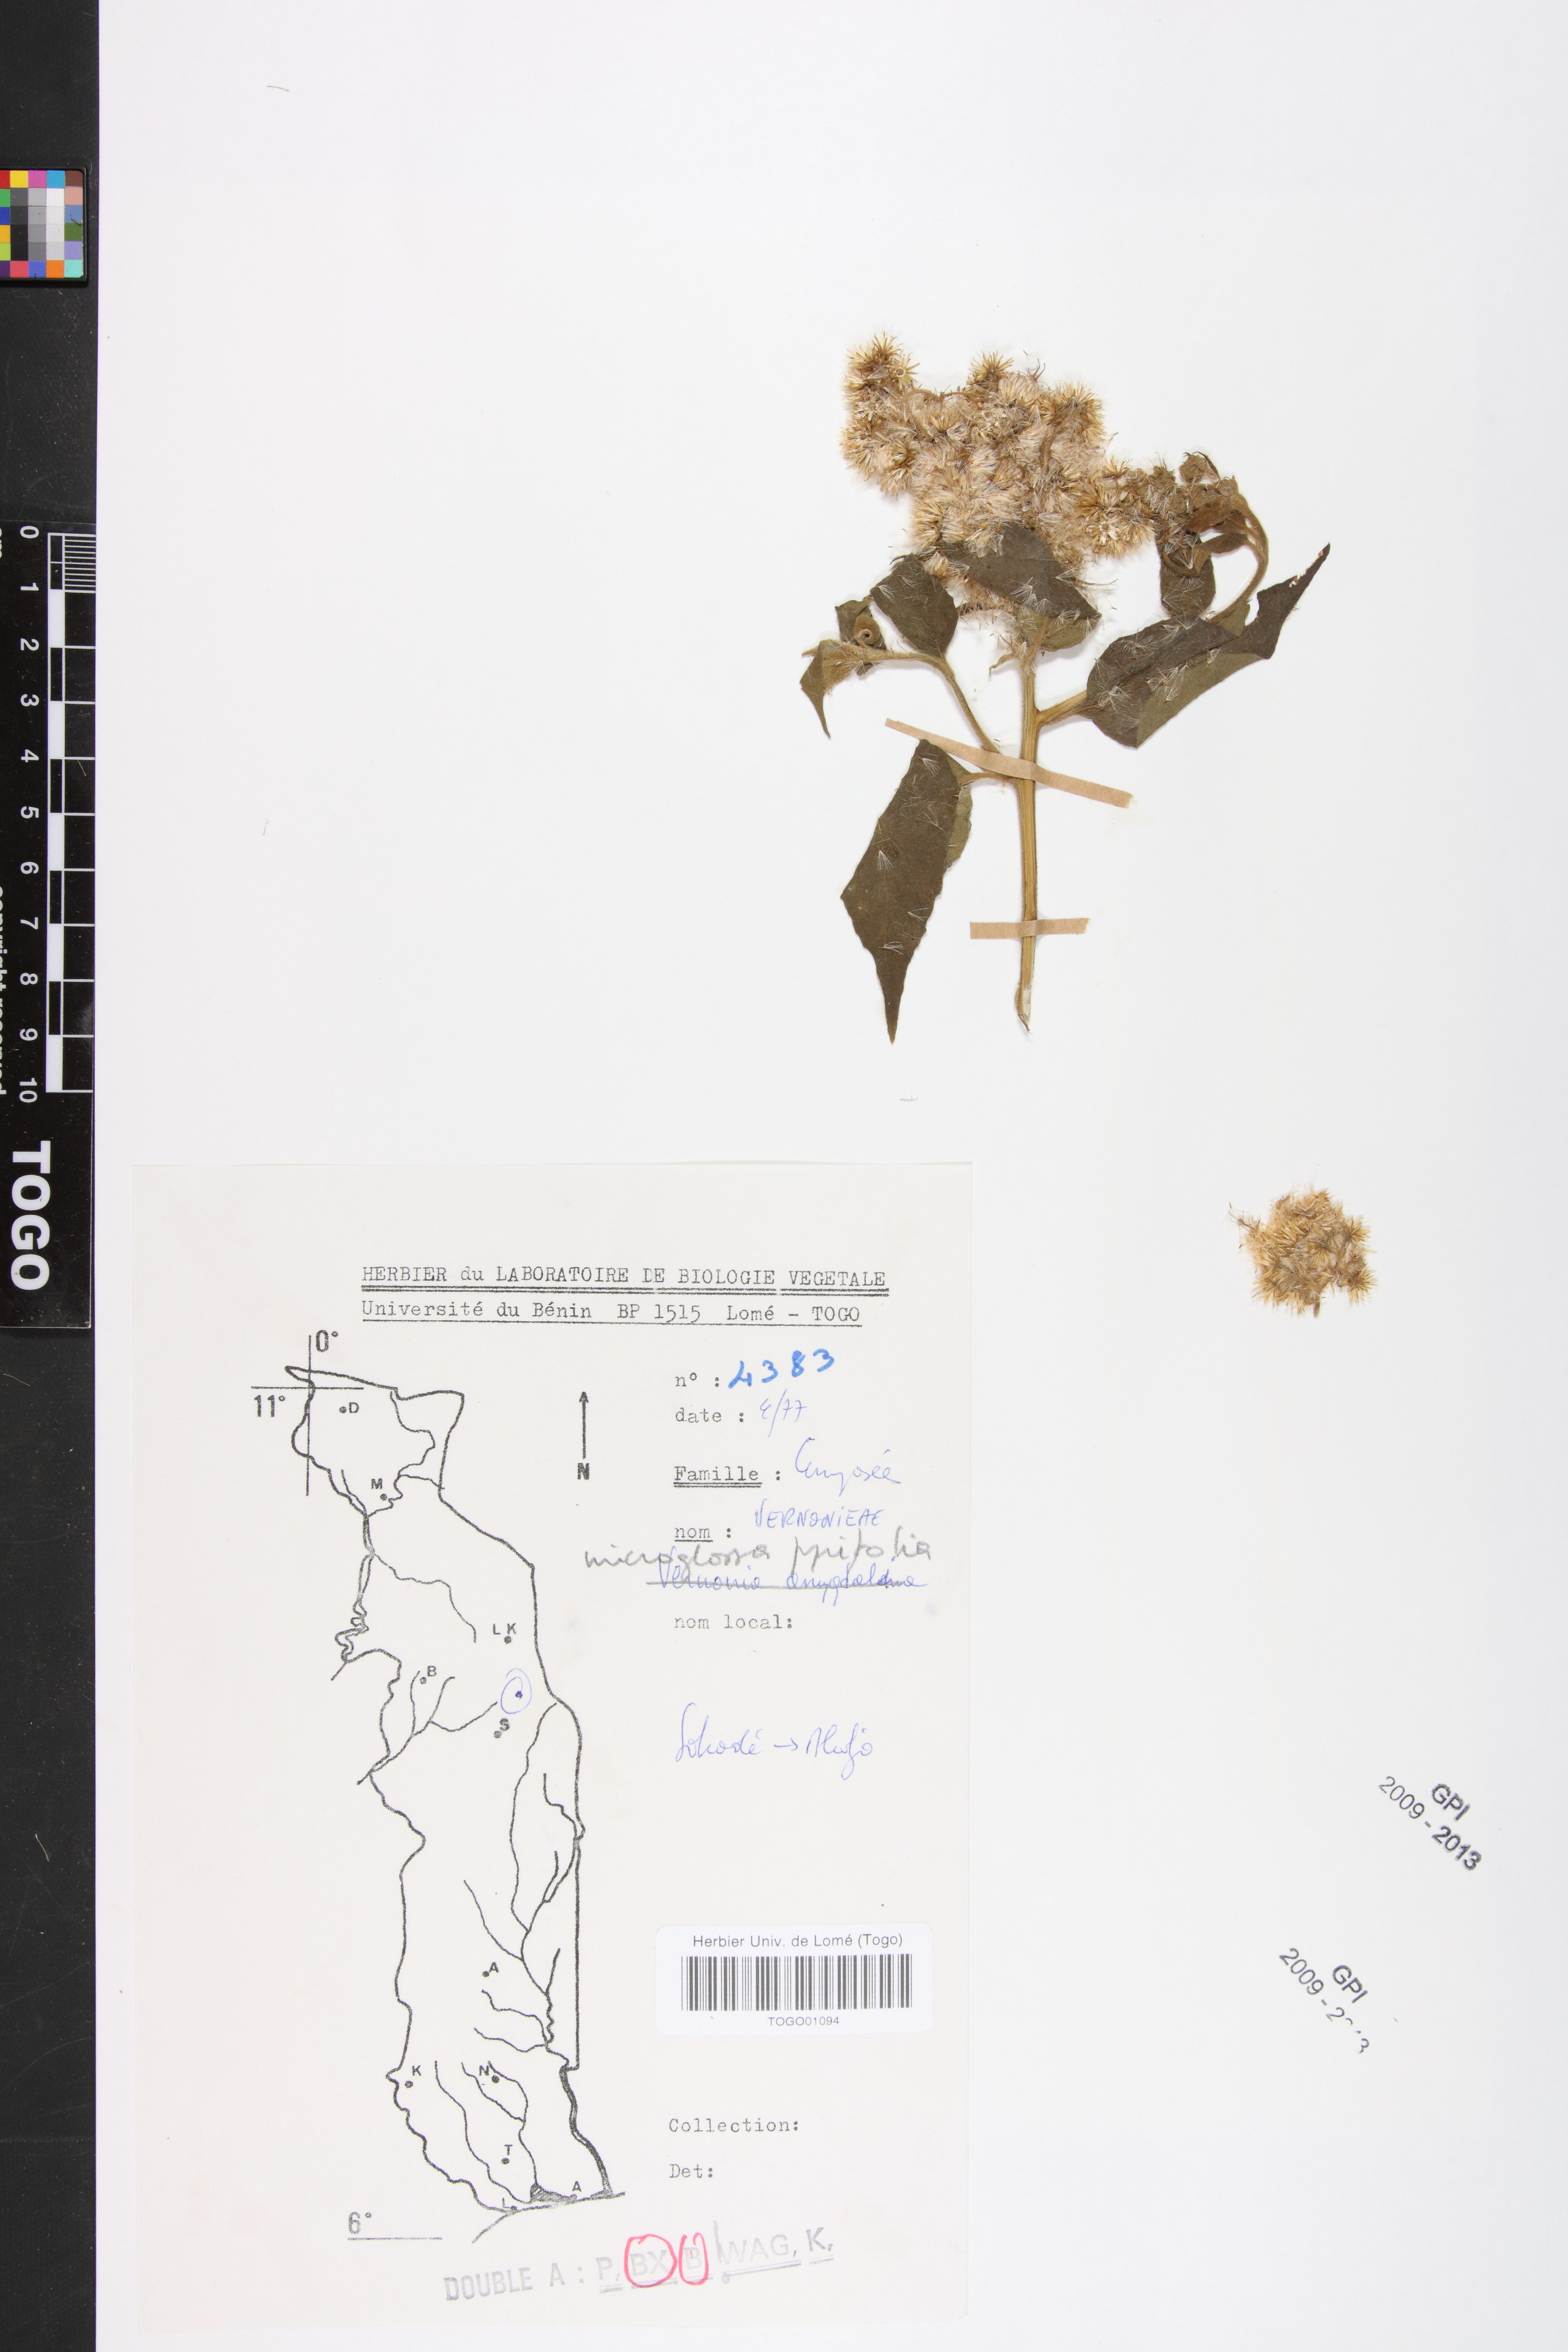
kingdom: Plantae
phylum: Tracheophyta
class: Magnoliopsida
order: Asterales
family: Asteraceae
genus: Microglossa
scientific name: Microglossa pyrifolia
